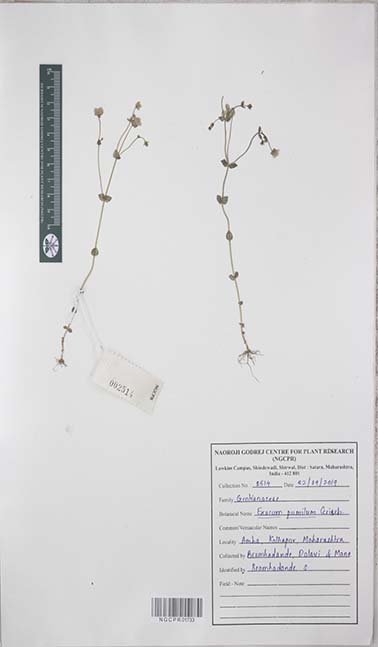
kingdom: Plantae
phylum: Tracheophyta
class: Magnoliopsida
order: Gentianales
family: Gentianaceae
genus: Exacum
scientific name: Exacum pumilum
